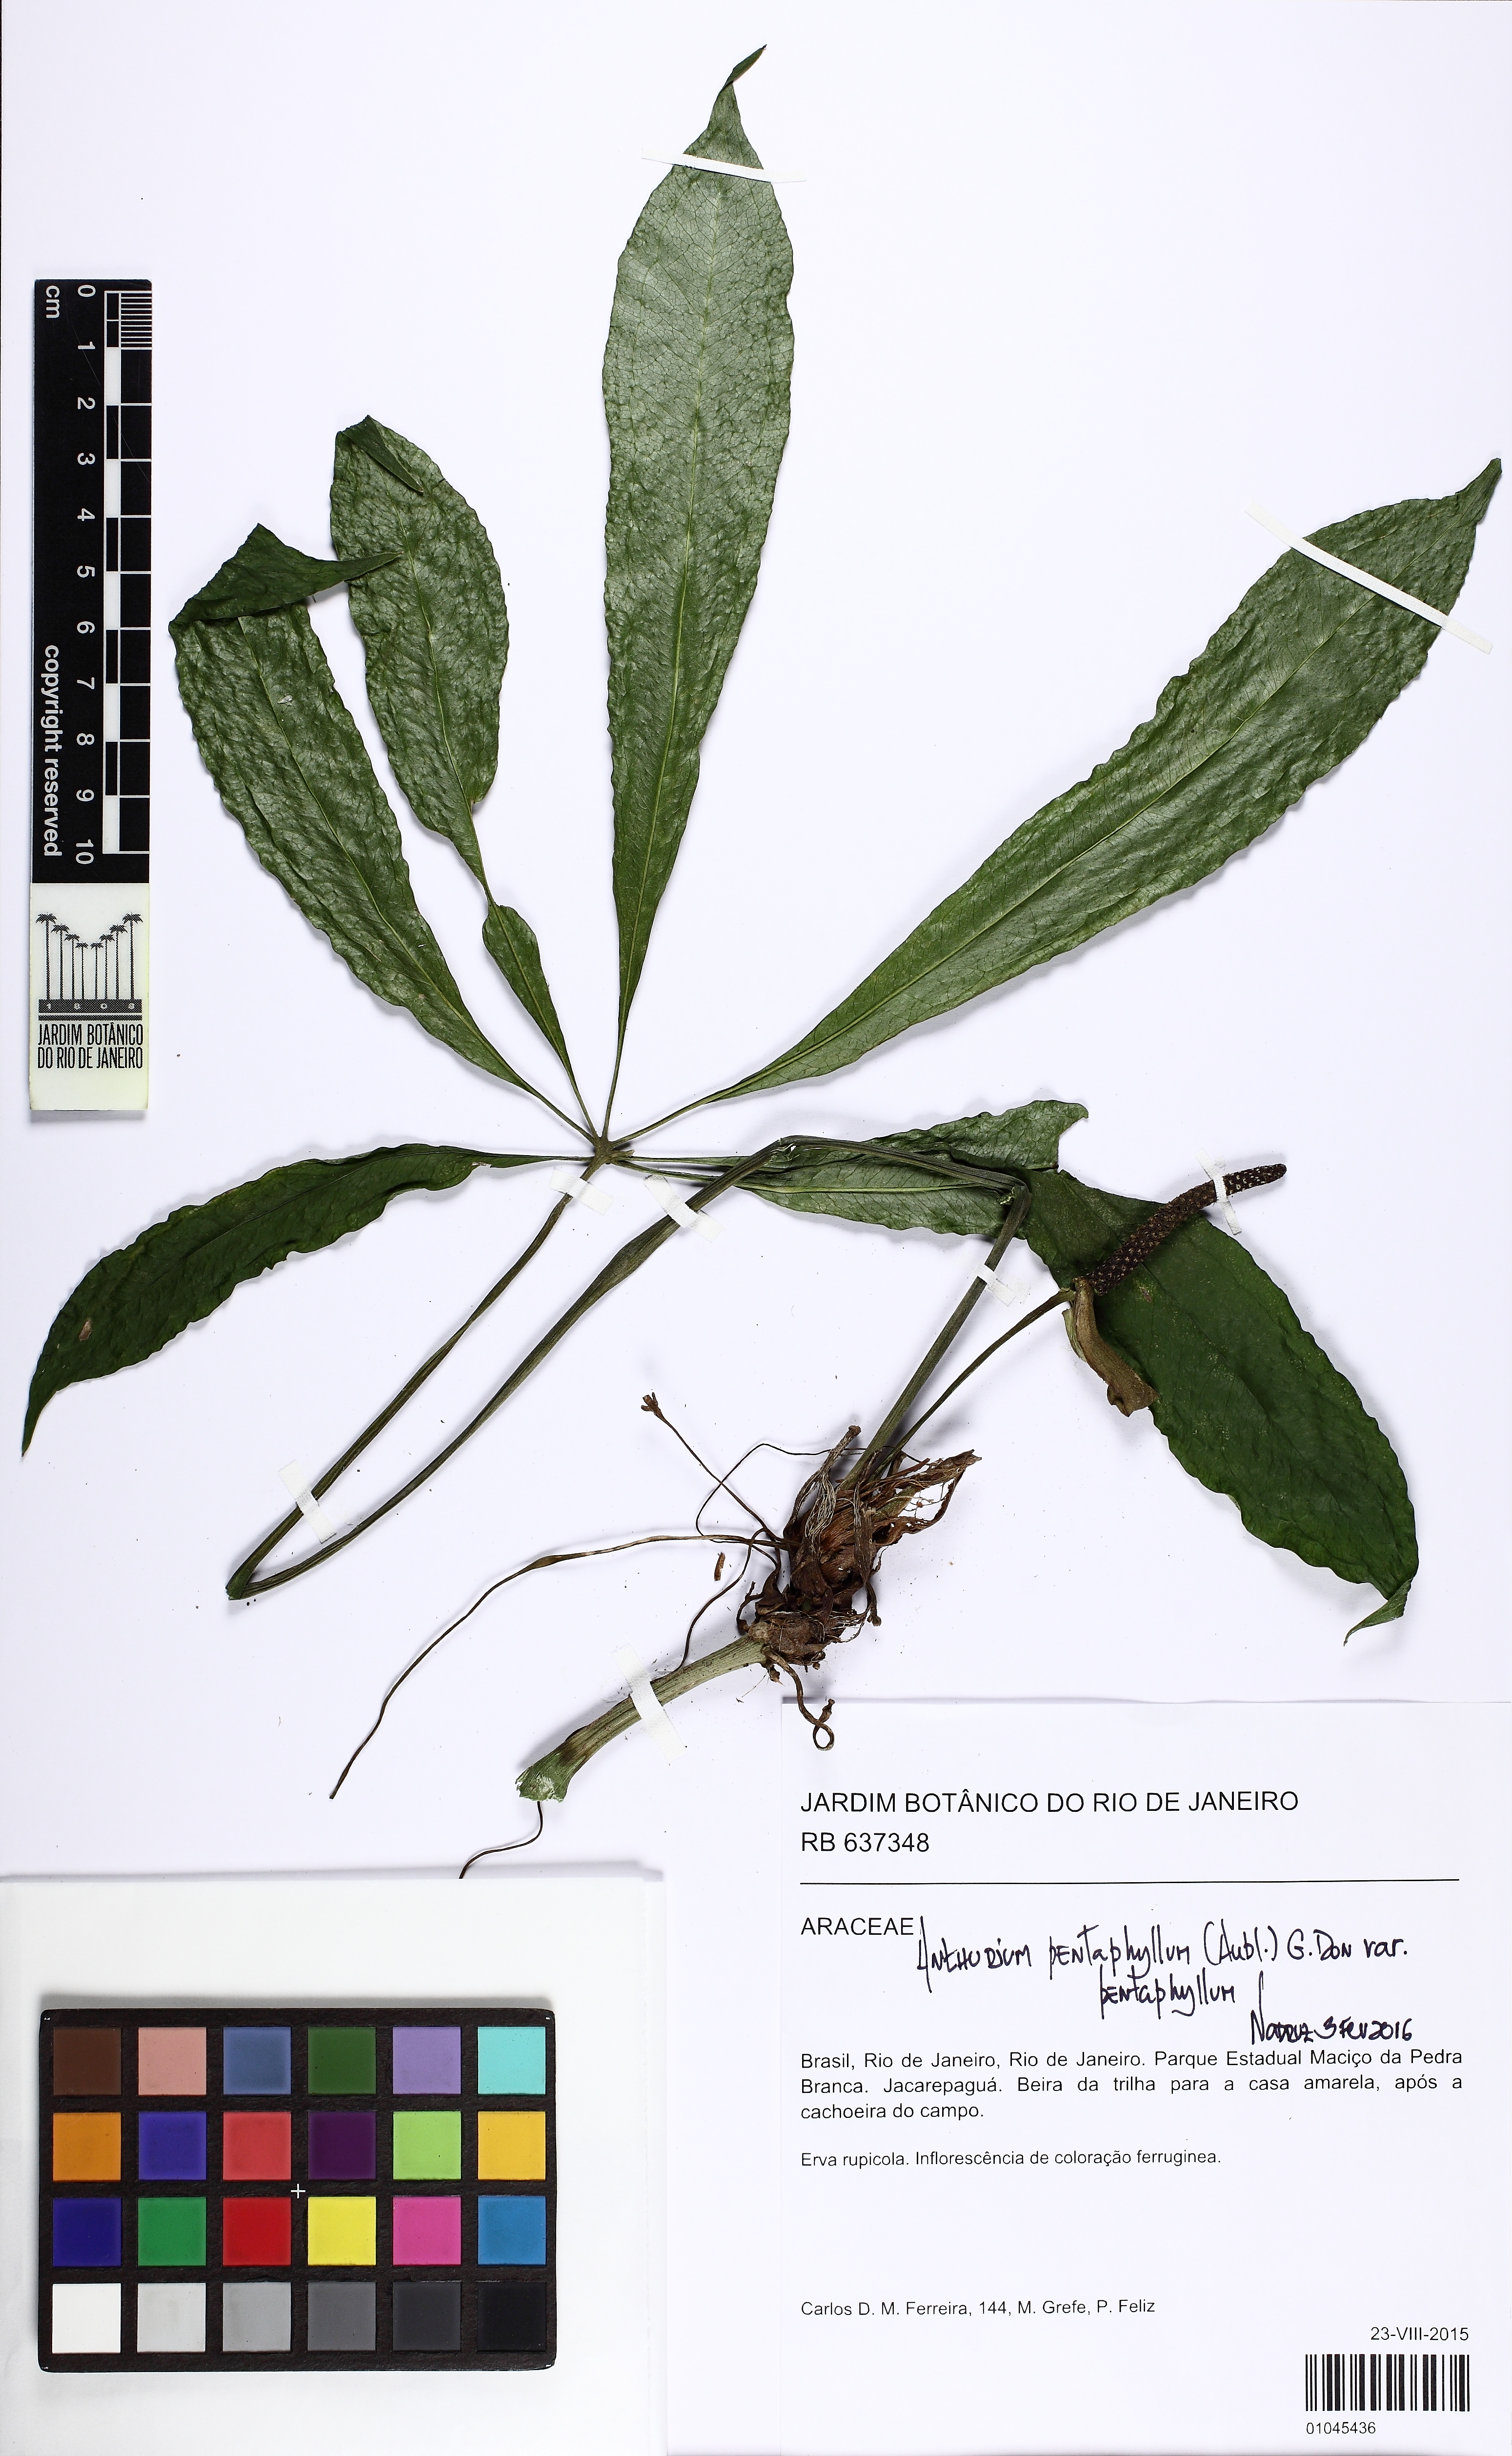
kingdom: Plantae
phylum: Tracheophyta
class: Liliopsida
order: Alismatales
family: Araceae
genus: Anthurium
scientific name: Anthurium pentaphyllum
